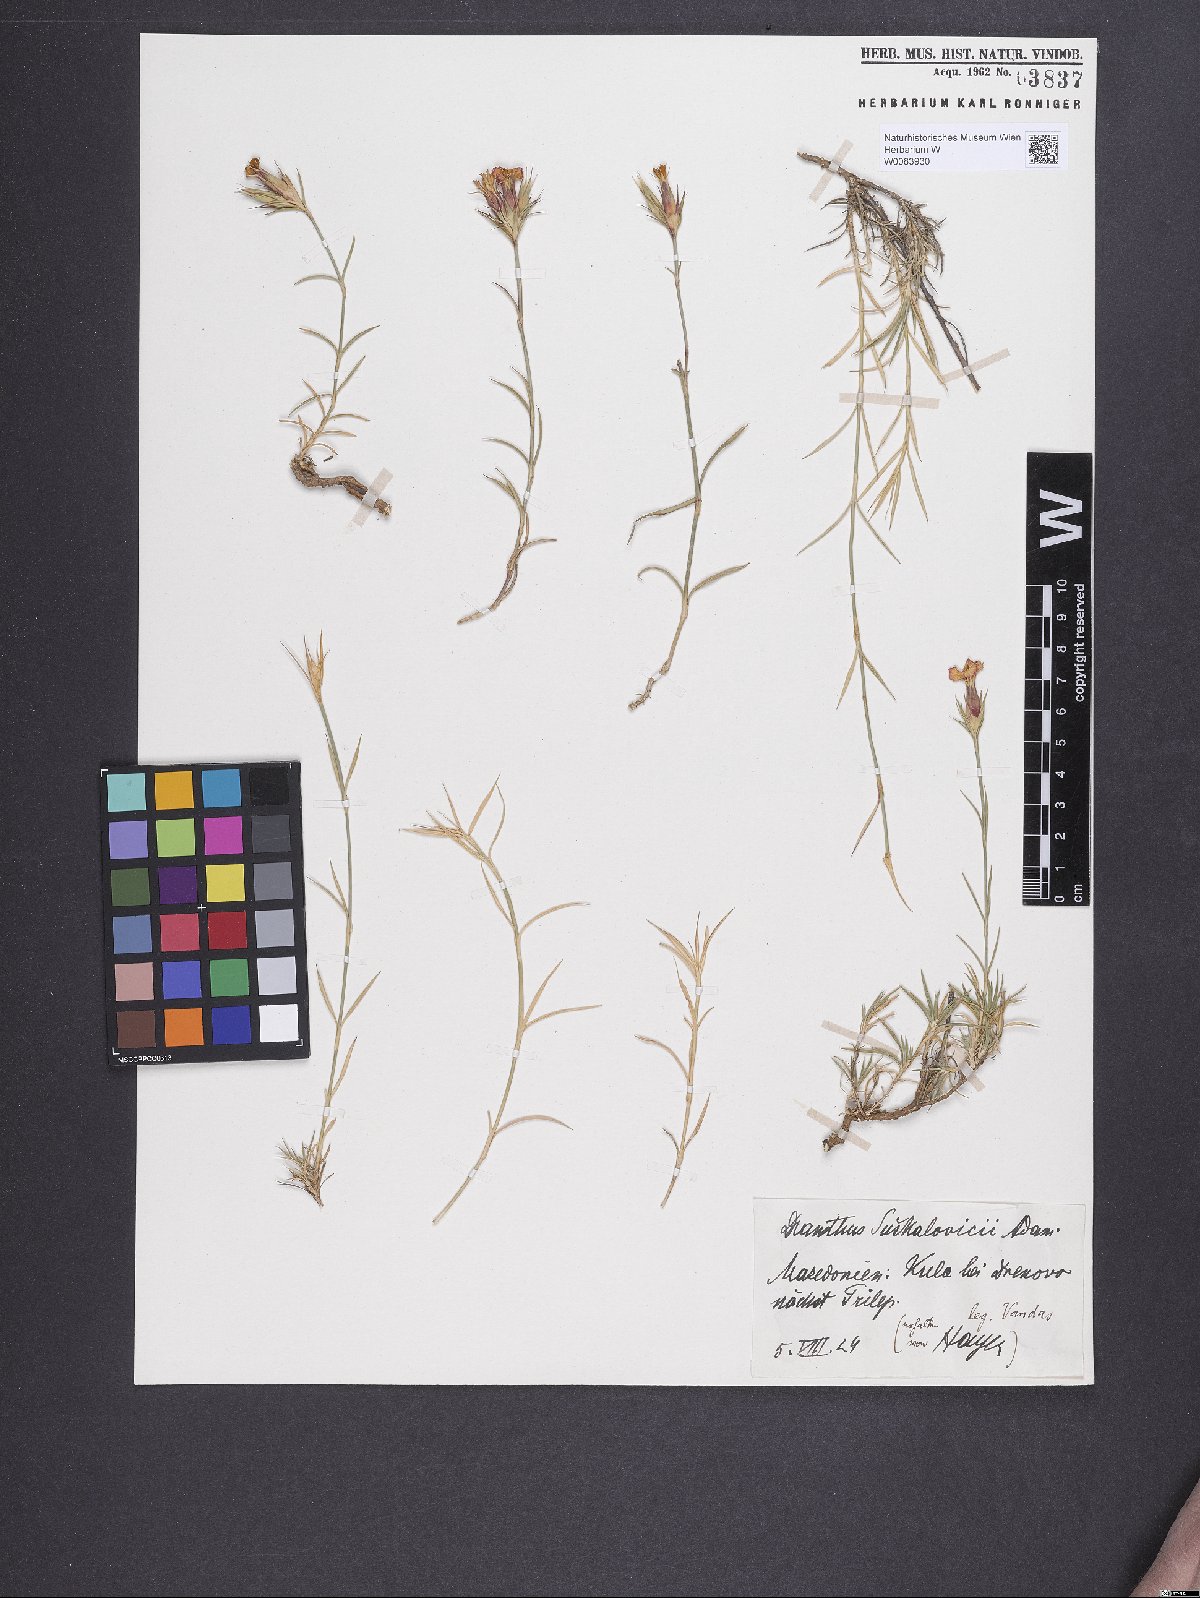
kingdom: Plantae
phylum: Tracheophyta
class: Magnoliopsida
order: Caryophyllales
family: Caryophyllaceae
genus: Dianthus
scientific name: Dianthus gracilis
